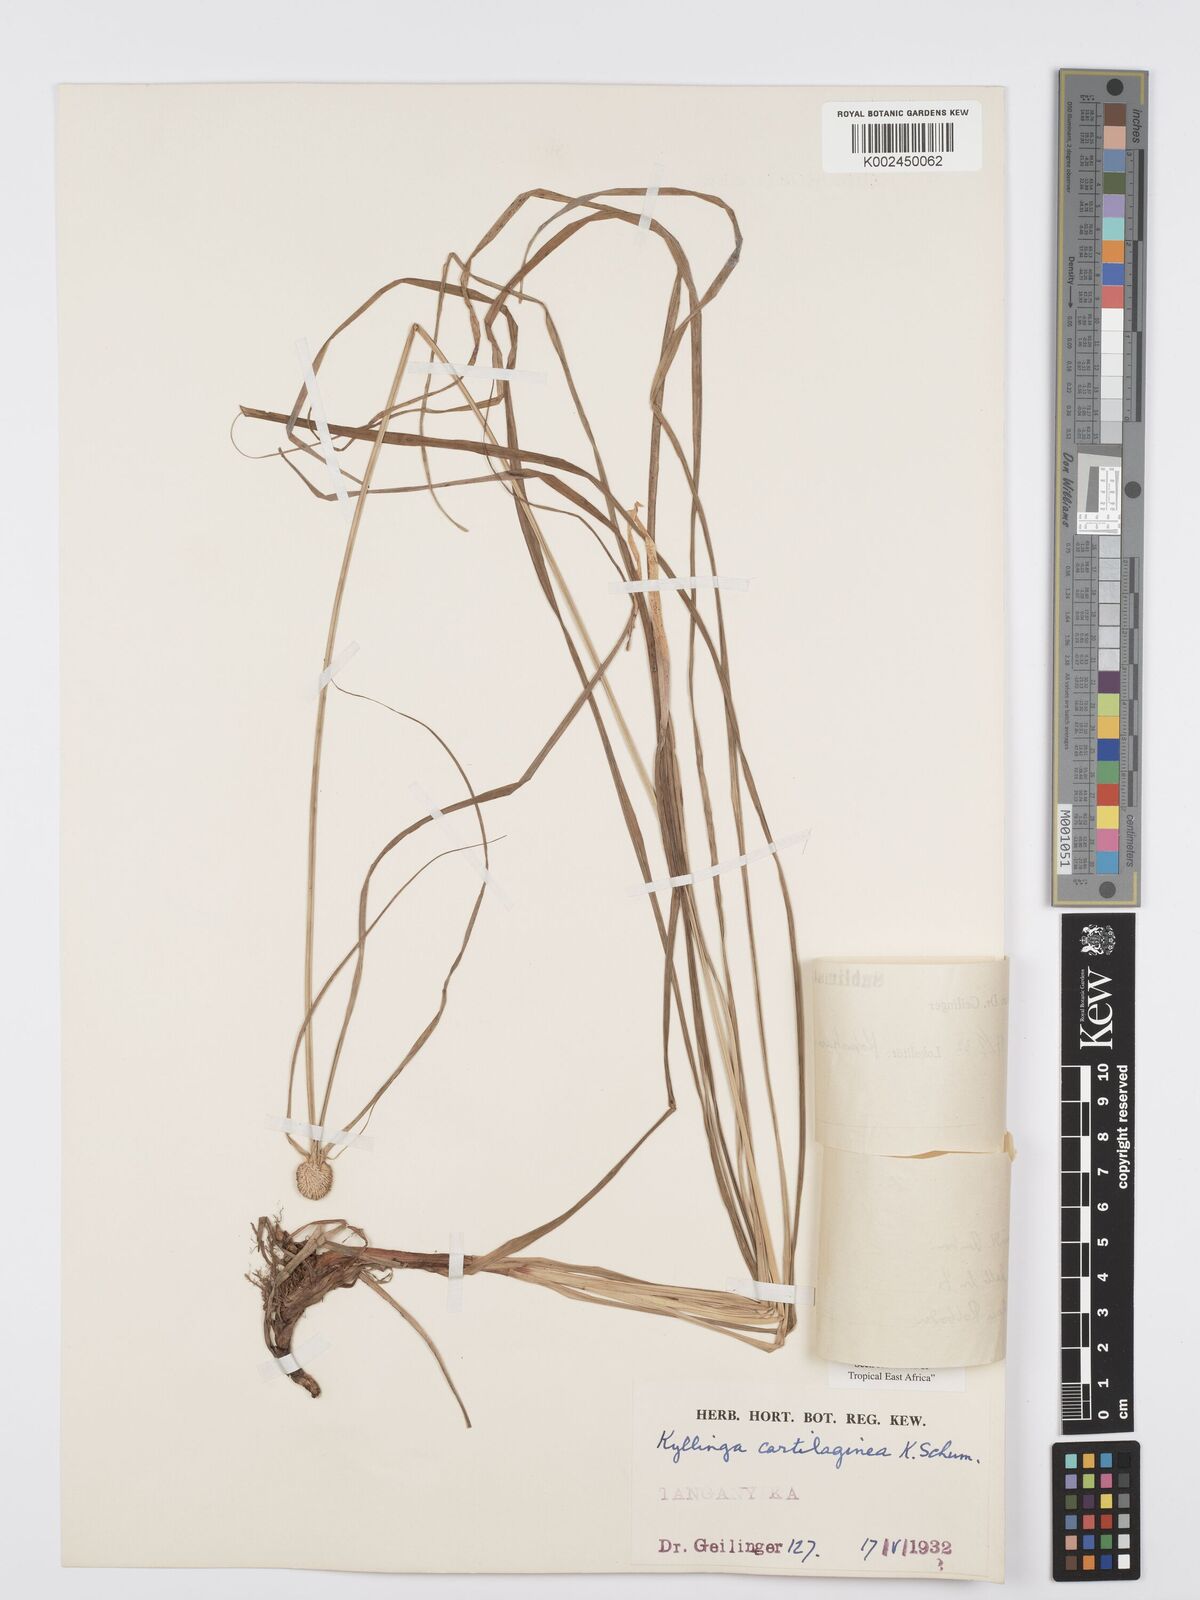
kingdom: Plantae
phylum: Tracheophyta
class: Liliopsida
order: Poales
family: Cyperaceae
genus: Cyperus
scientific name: Cyperus cartilagineus
